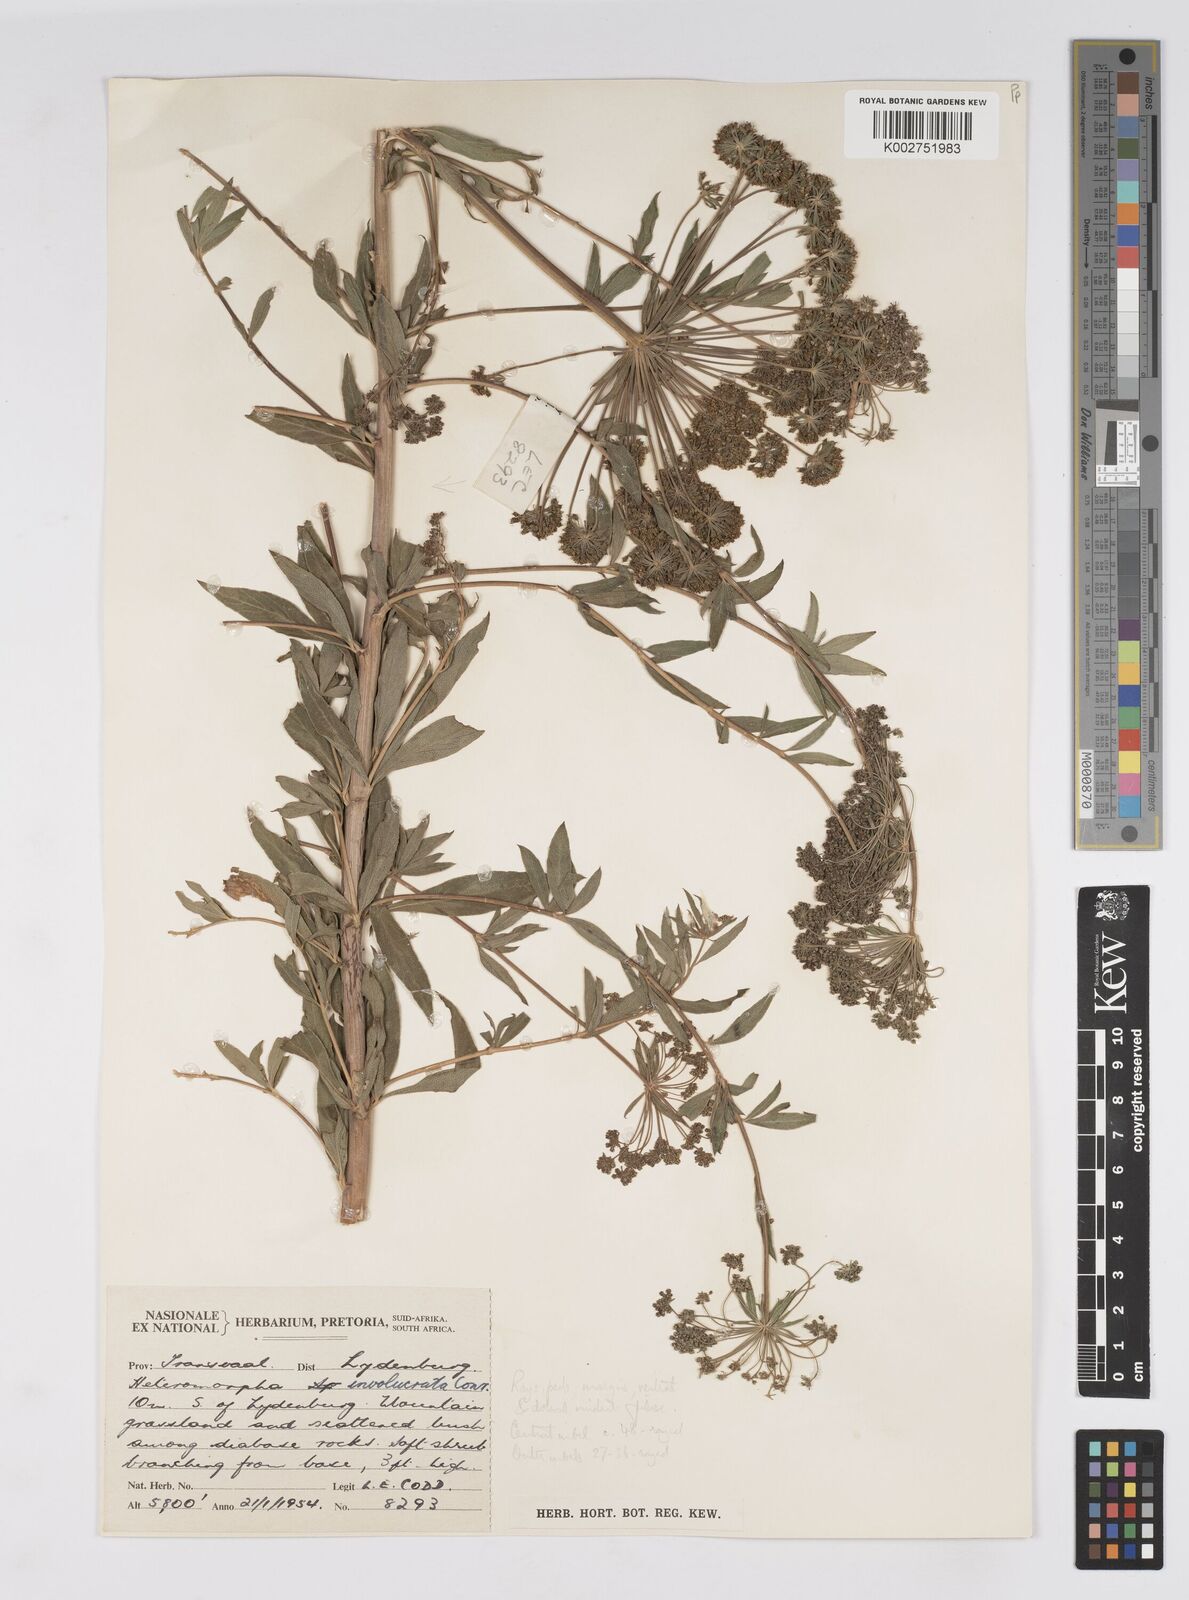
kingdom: Plantae
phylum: Tracheophyta
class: Magnoliopsida
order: Apiales
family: Apiaceae
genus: Heteromorpha
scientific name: Heteromorpha involucrata
